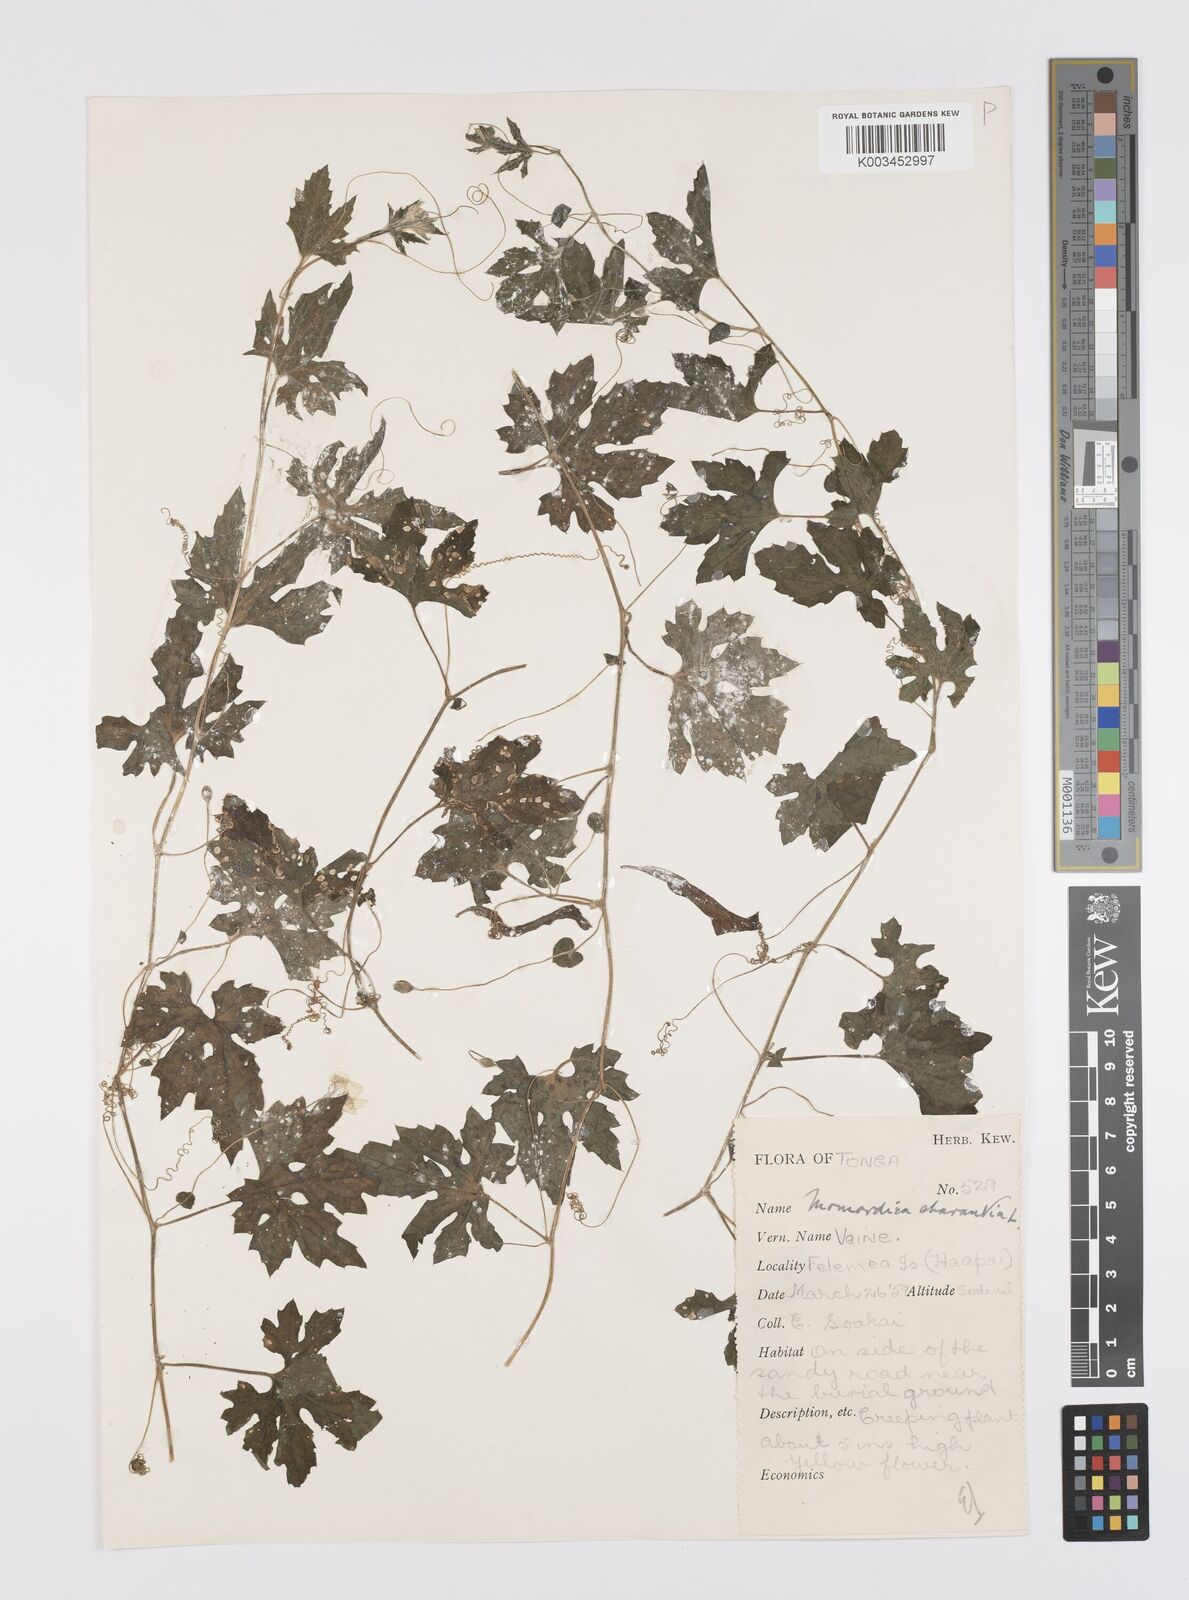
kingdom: Plantae
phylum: Tracheophyta
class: Magnoliopsida
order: Cucurbitales
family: Cucurbitaceae
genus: Momordica
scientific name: Momordica charantia
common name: Balsampear
